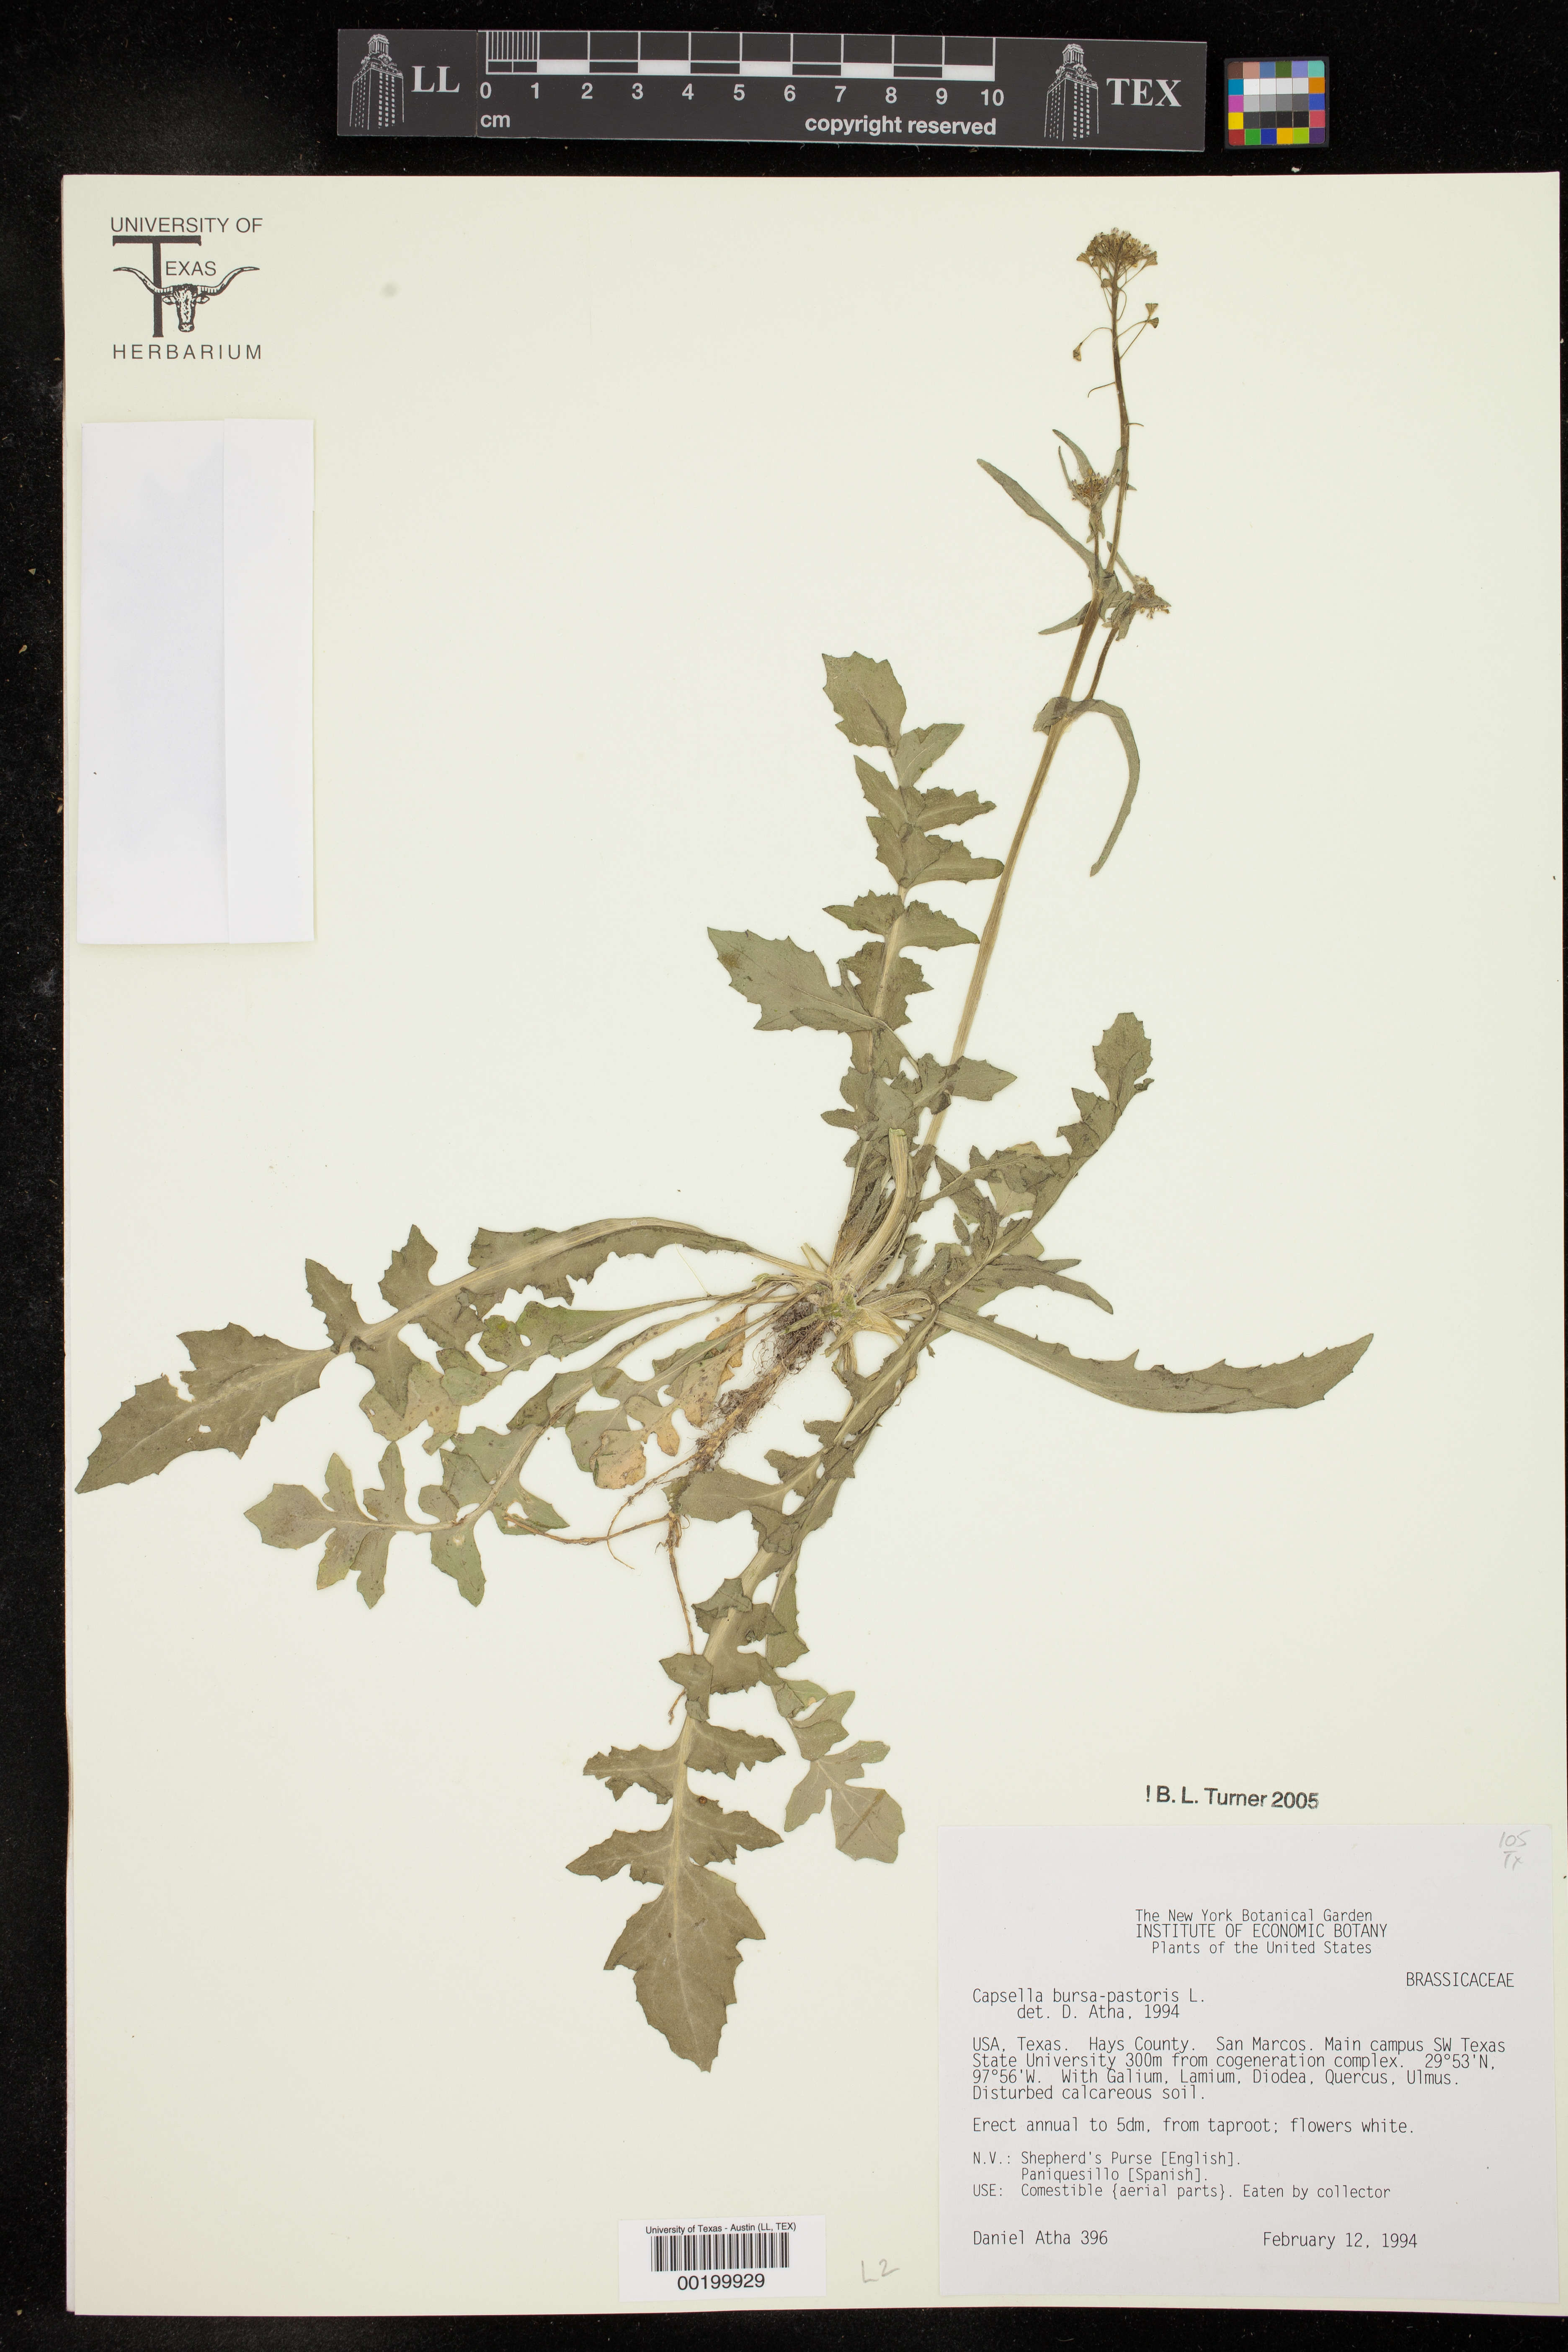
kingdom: Plantae
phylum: Tracheophyta
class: Magnoliopsida
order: Brassicales
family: Brassicaceae
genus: Capsella
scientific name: Capsella bursa-pastoris
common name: Shepherd's purse
